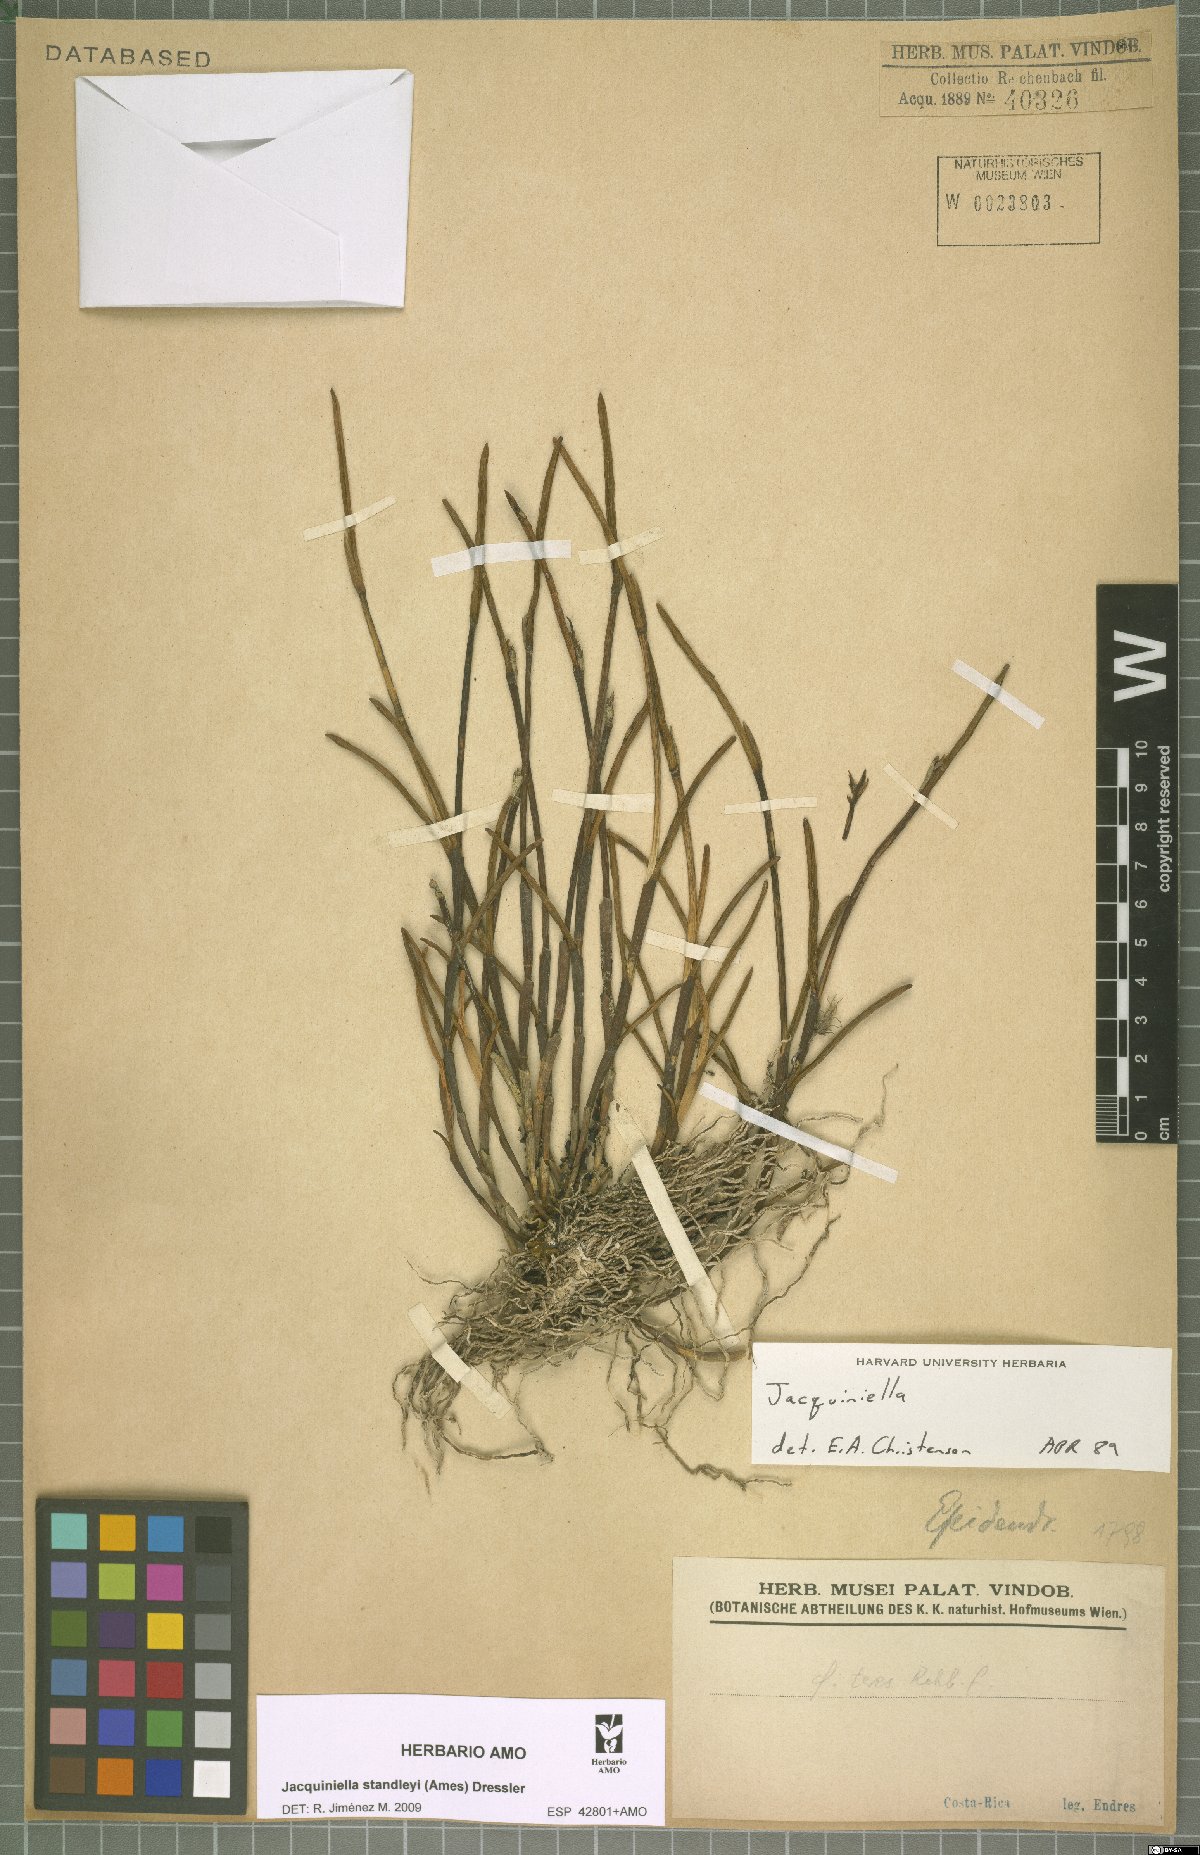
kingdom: Plantae
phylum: Tracheophyta
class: Liliopsida
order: Asparagales
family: Orchidaceae
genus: Jacquiniella
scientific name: Jacquiniella standleyi
